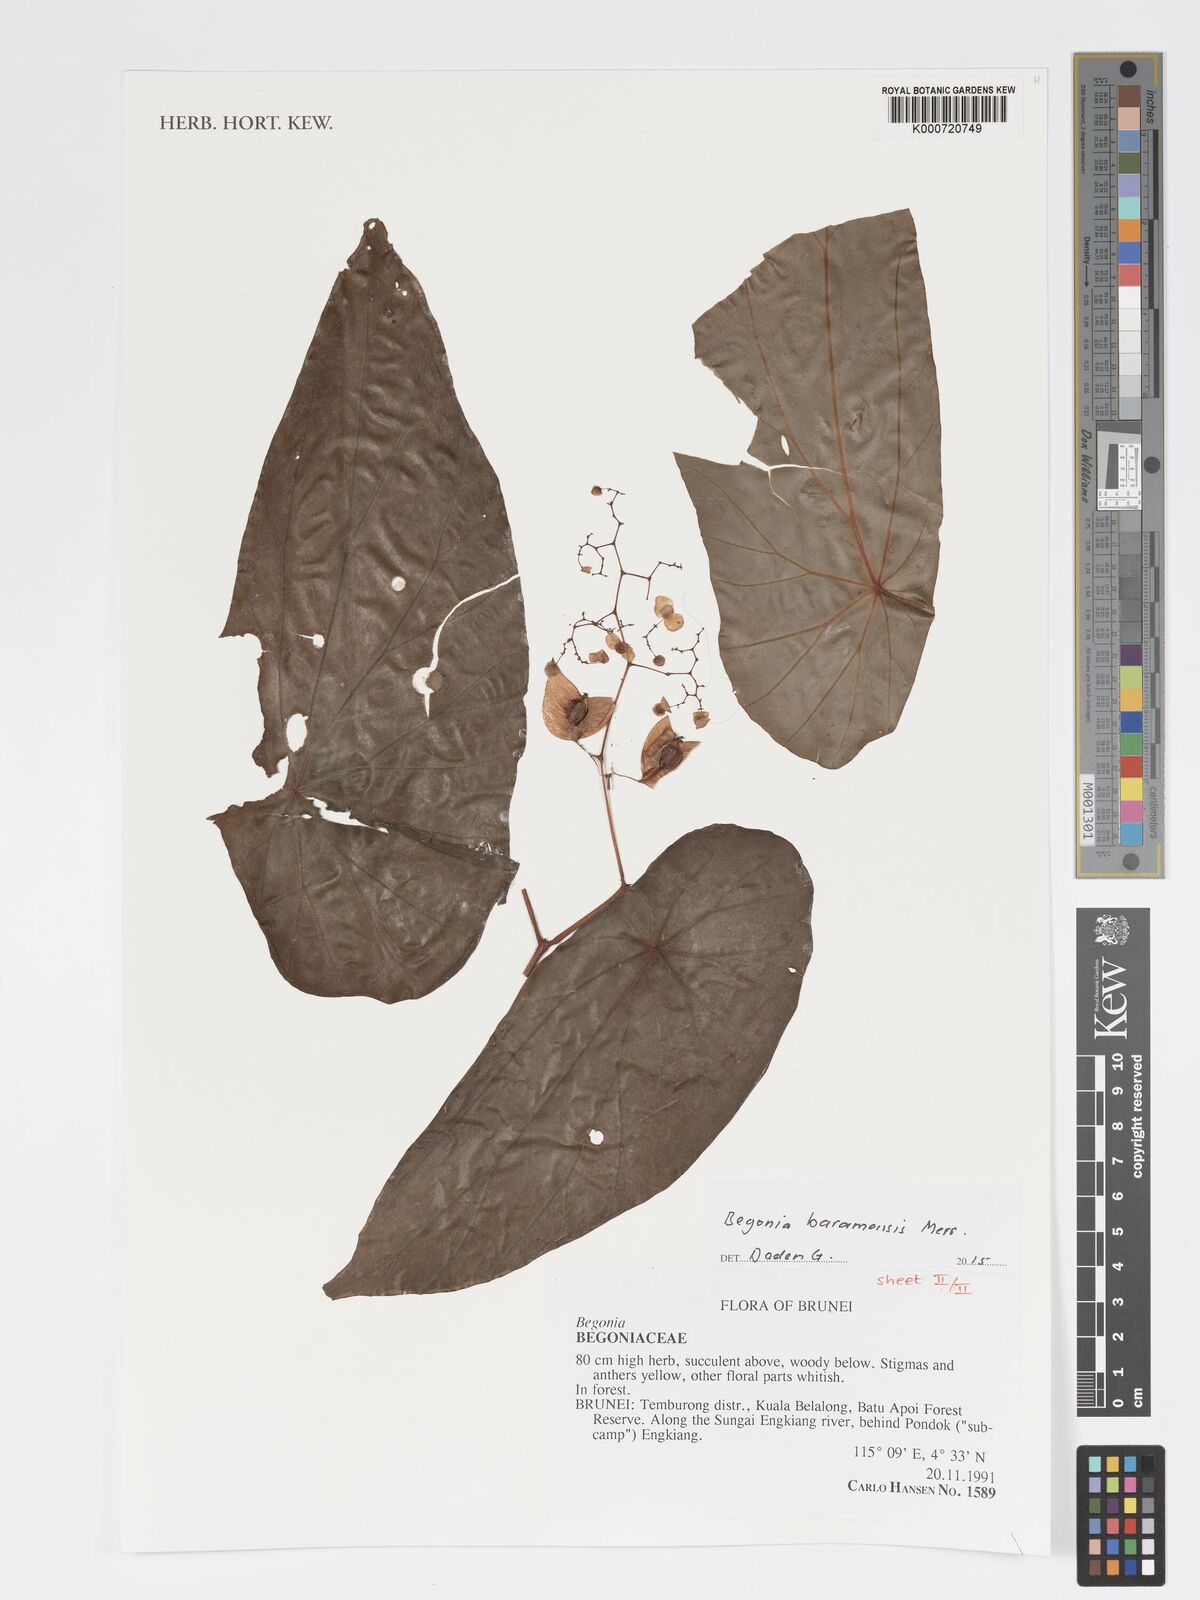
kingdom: Plantae
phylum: Tracheophyta
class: Magnoliopsida
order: Cucurbitales
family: Begoniaceae
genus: Begonia
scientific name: Begonia baramensis
